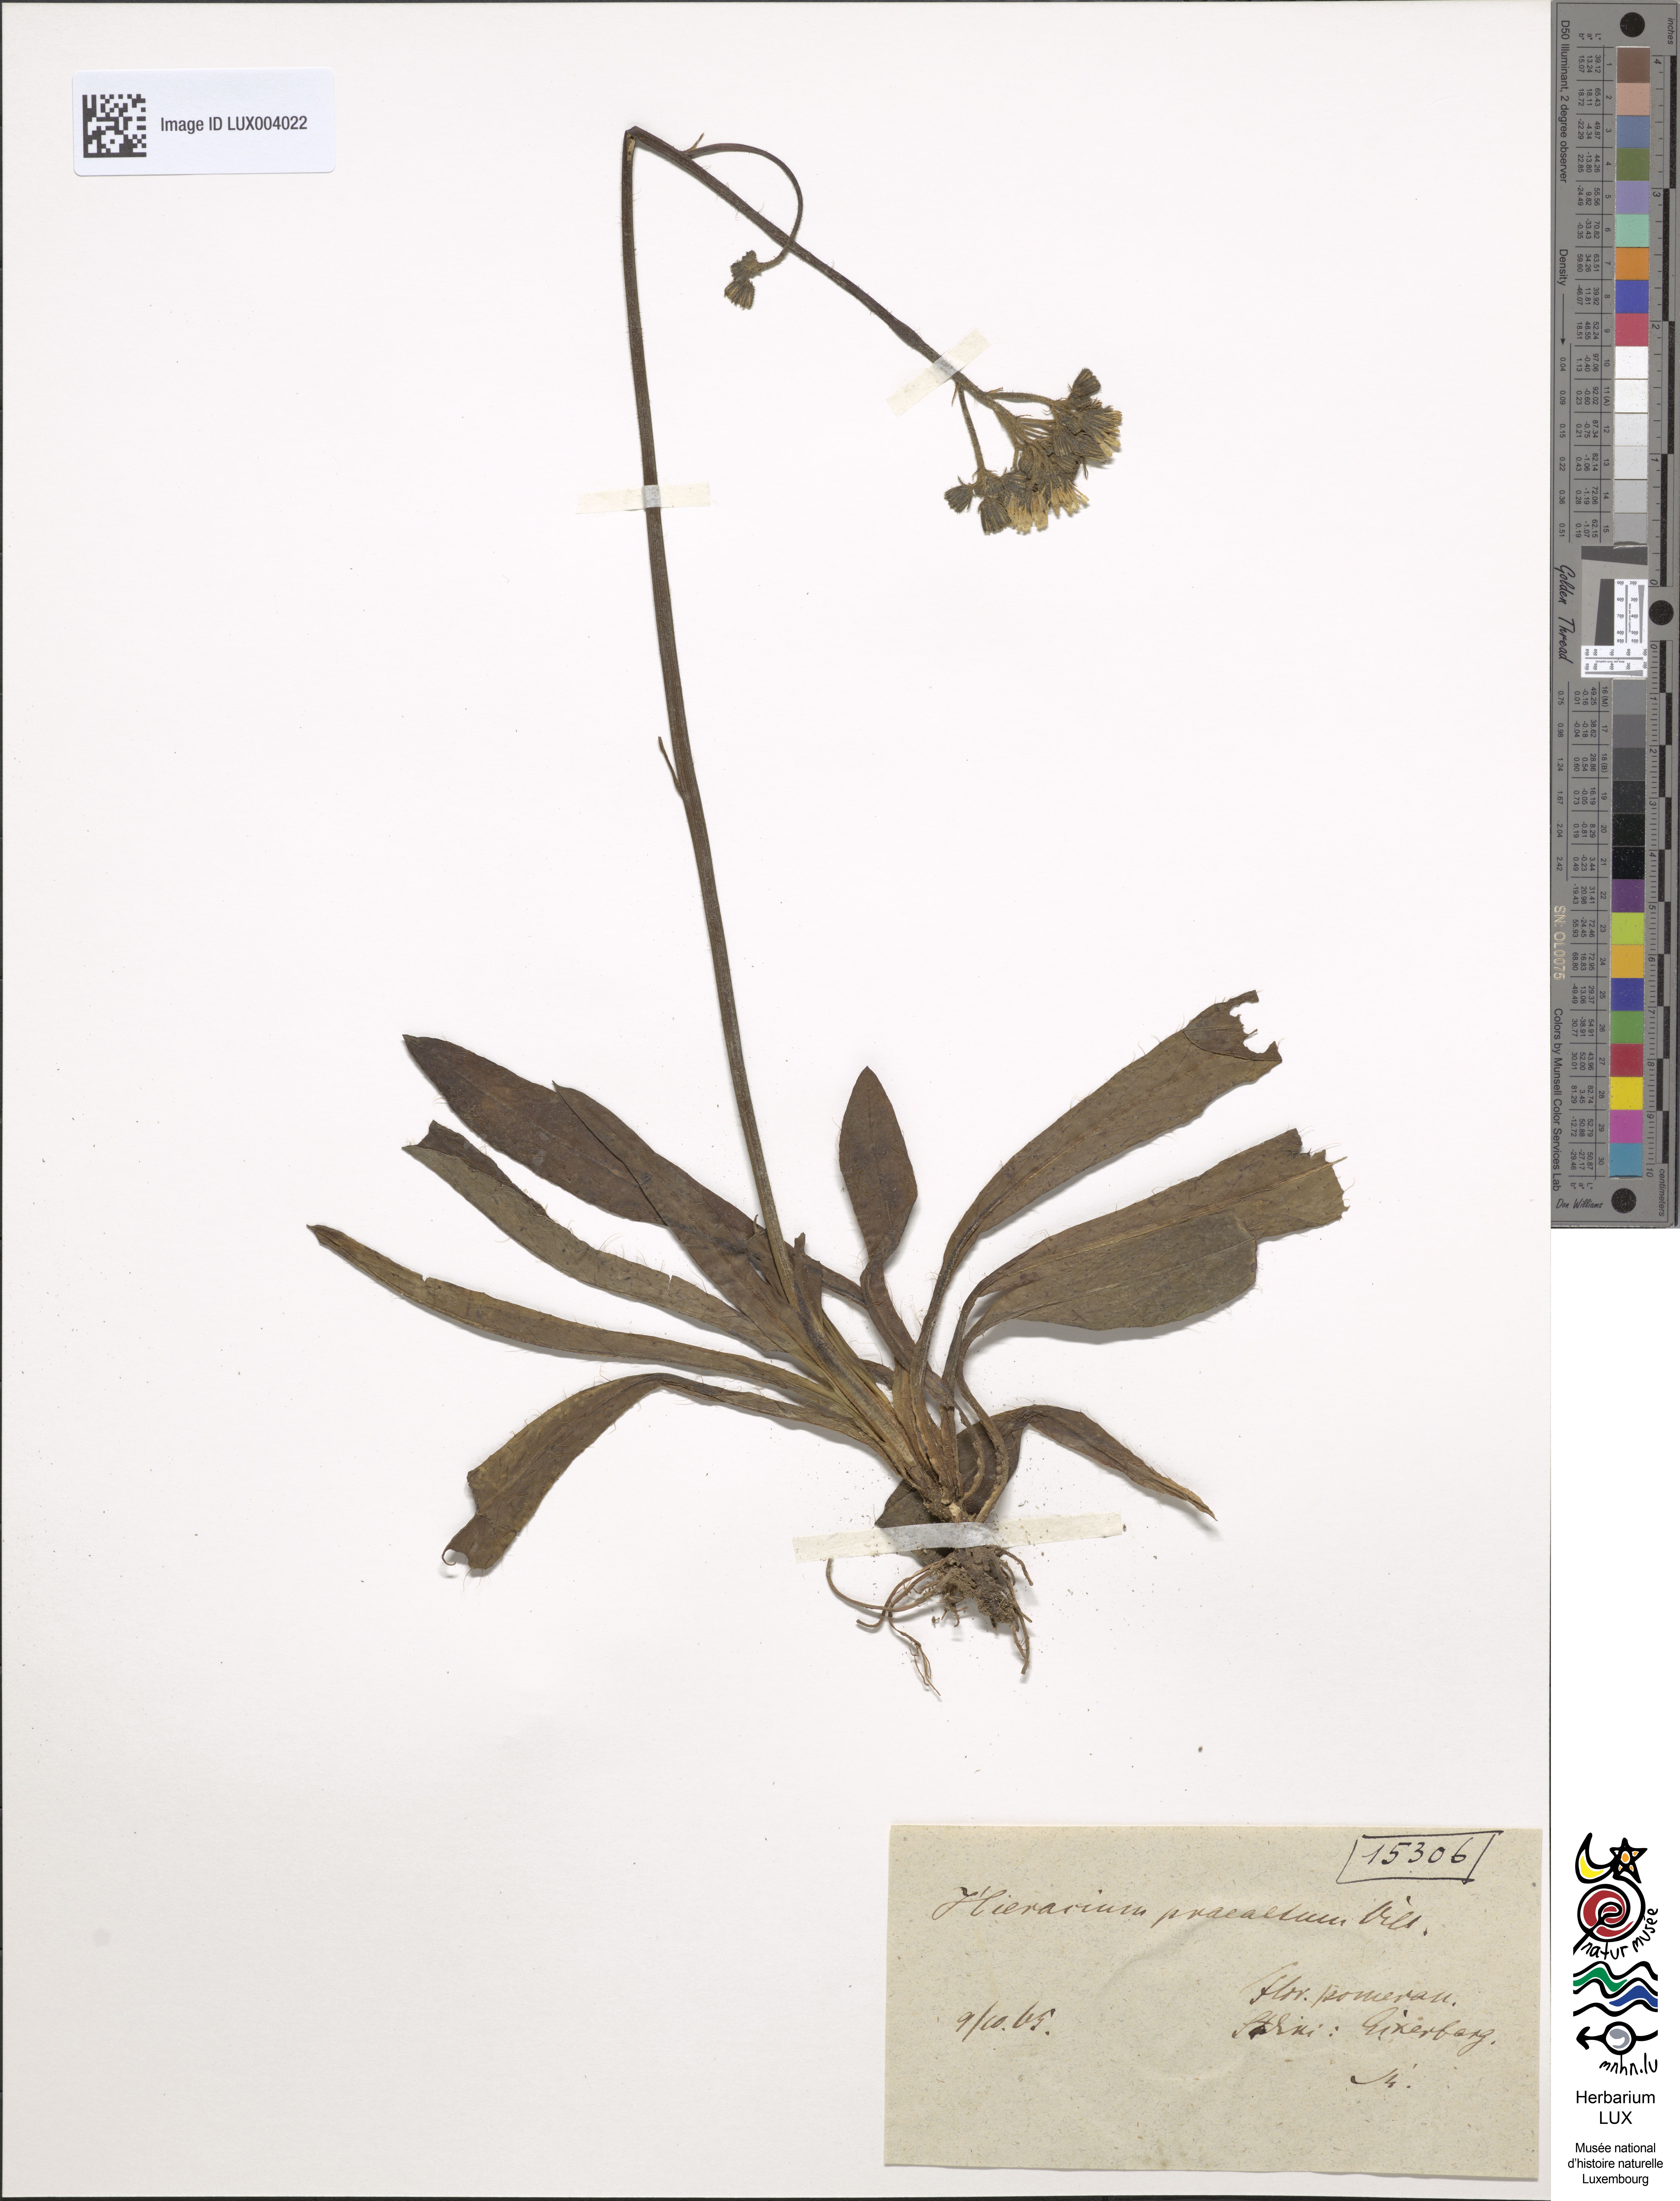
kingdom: Plantae
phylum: Tracheophyta
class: Magnoliopsida
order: Asterales
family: Asteraceae
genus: Pilosella
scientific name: Pilosella piloselloides
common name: Glaucous king-devil
